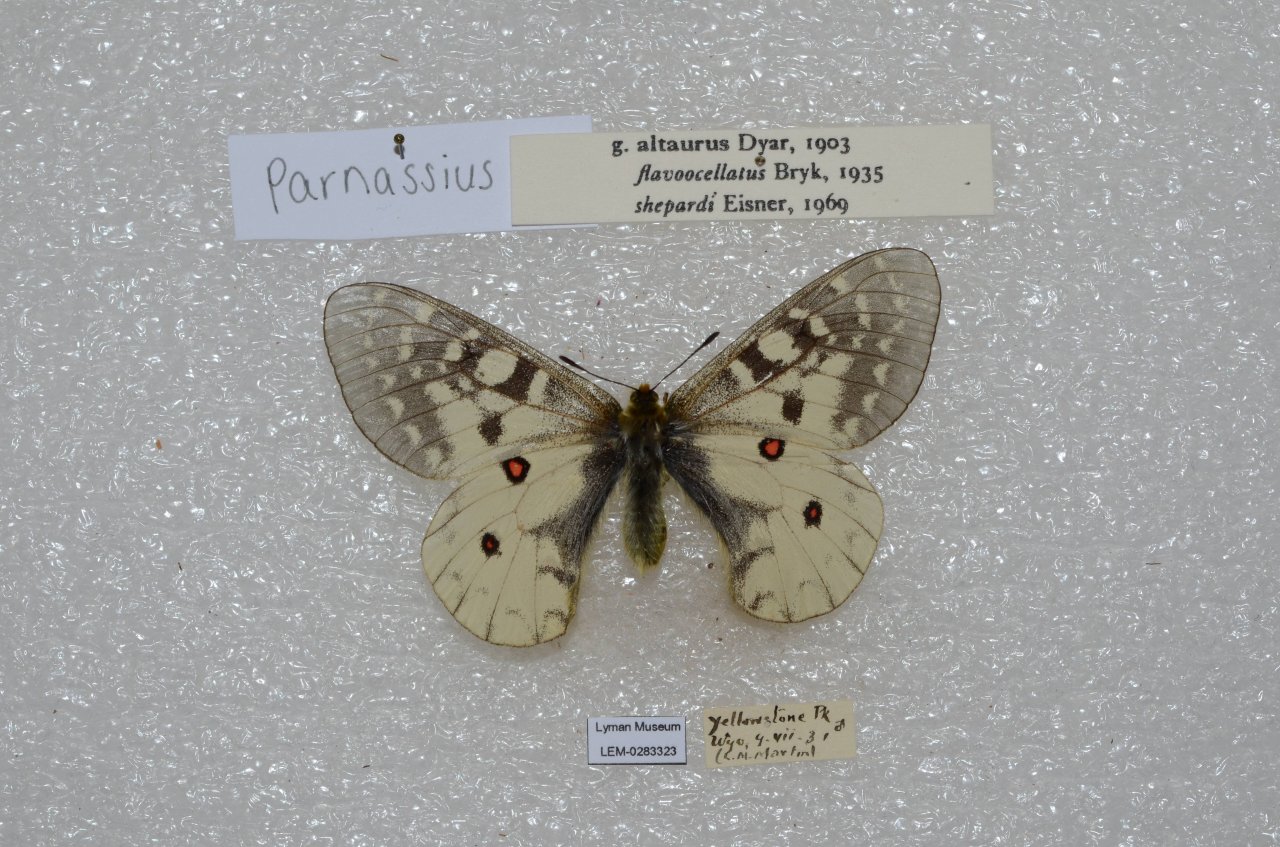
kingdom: Animalia
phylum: Arthropoda
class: Insecta
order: Lepidoptera
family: Papilionidae
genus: Parnassius
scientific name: Parnassius clodius
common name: Clodius Parnassian
